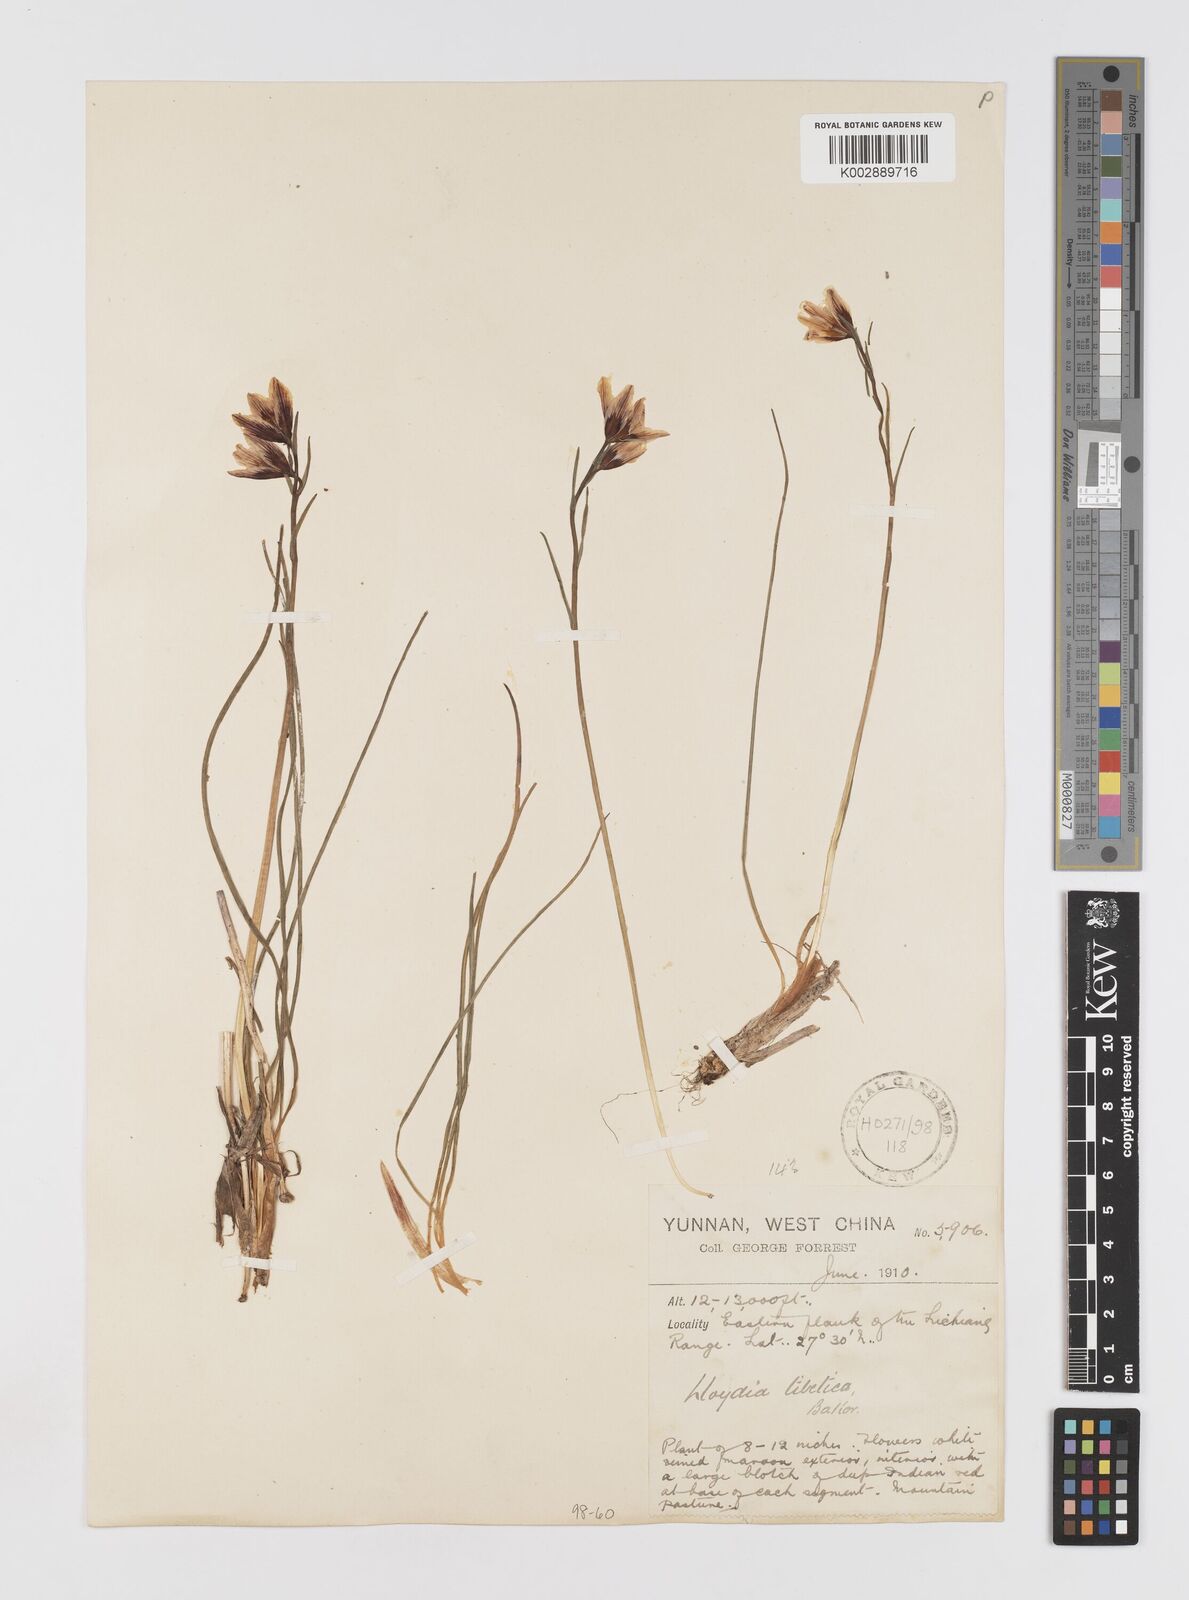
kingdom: Plantae
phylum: Tracheophyta
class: Liliopsida
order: Liliales
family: Liliaceae
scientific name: Liliaceae
